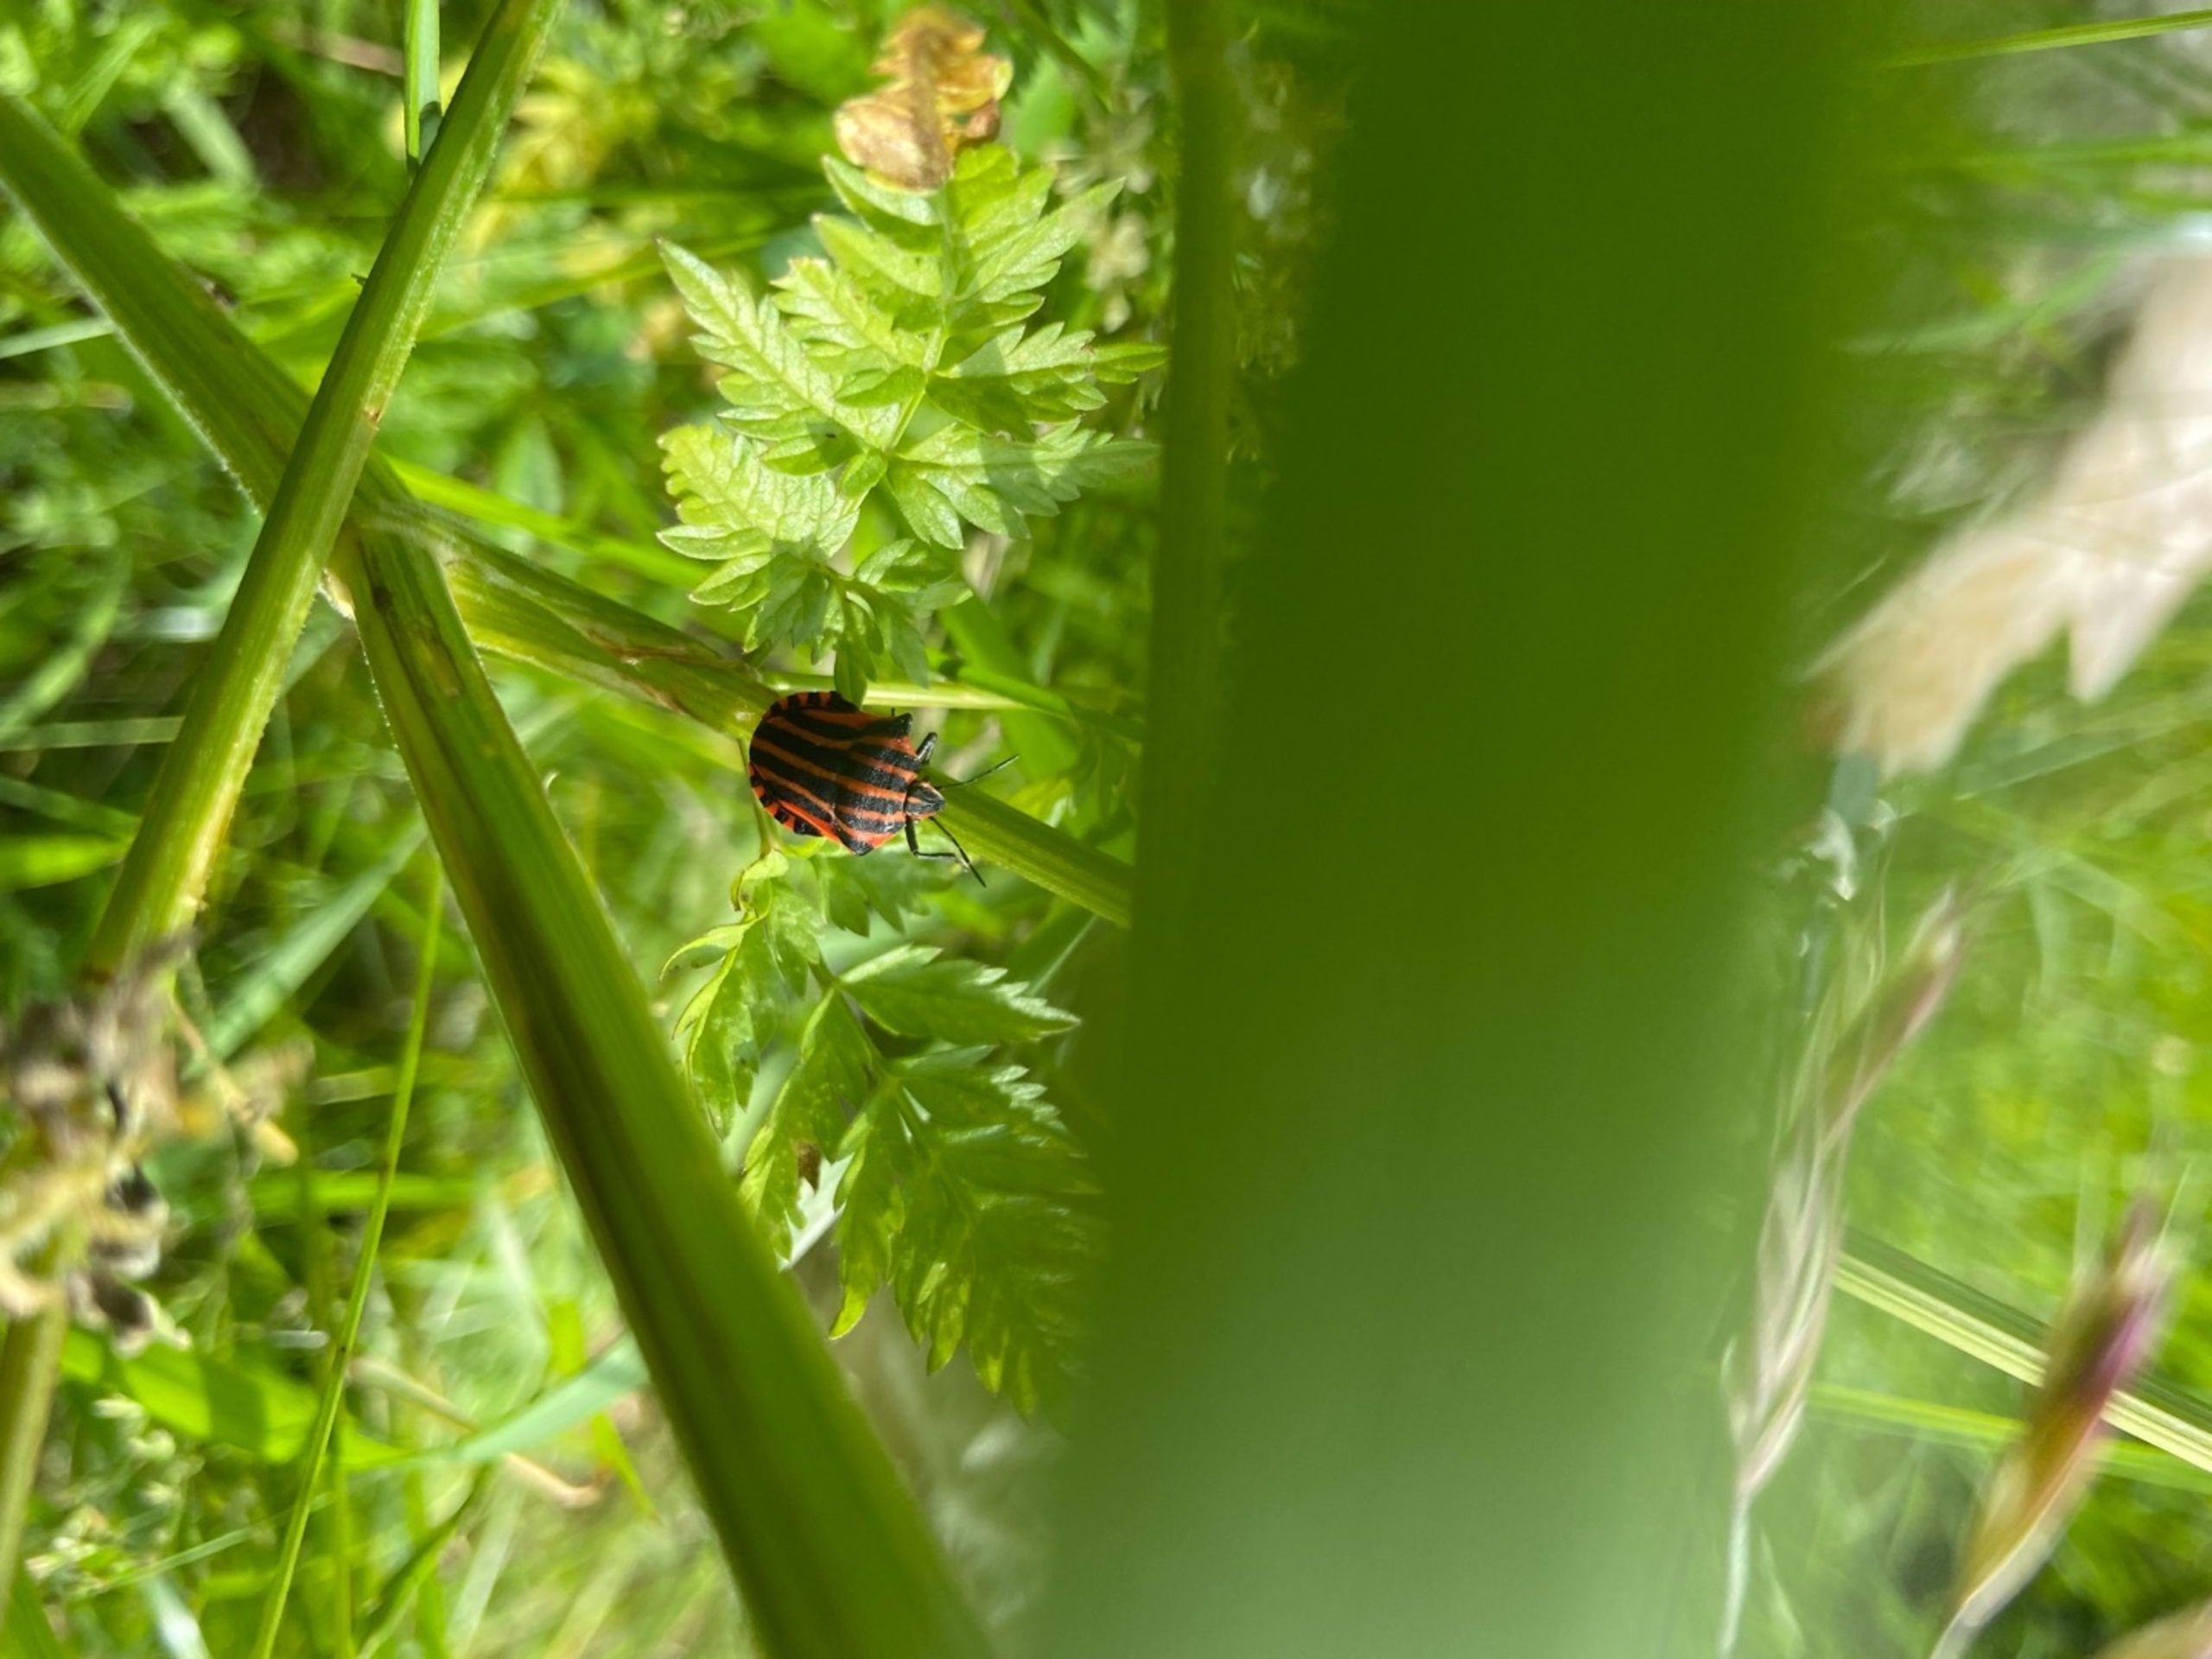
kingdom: Animalia
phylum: Arthropoda
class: Insecta
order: Hemiptera
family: Pentatomidae
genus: Graphosoma
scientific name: Graphosoma italicum
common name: Stribetæge
